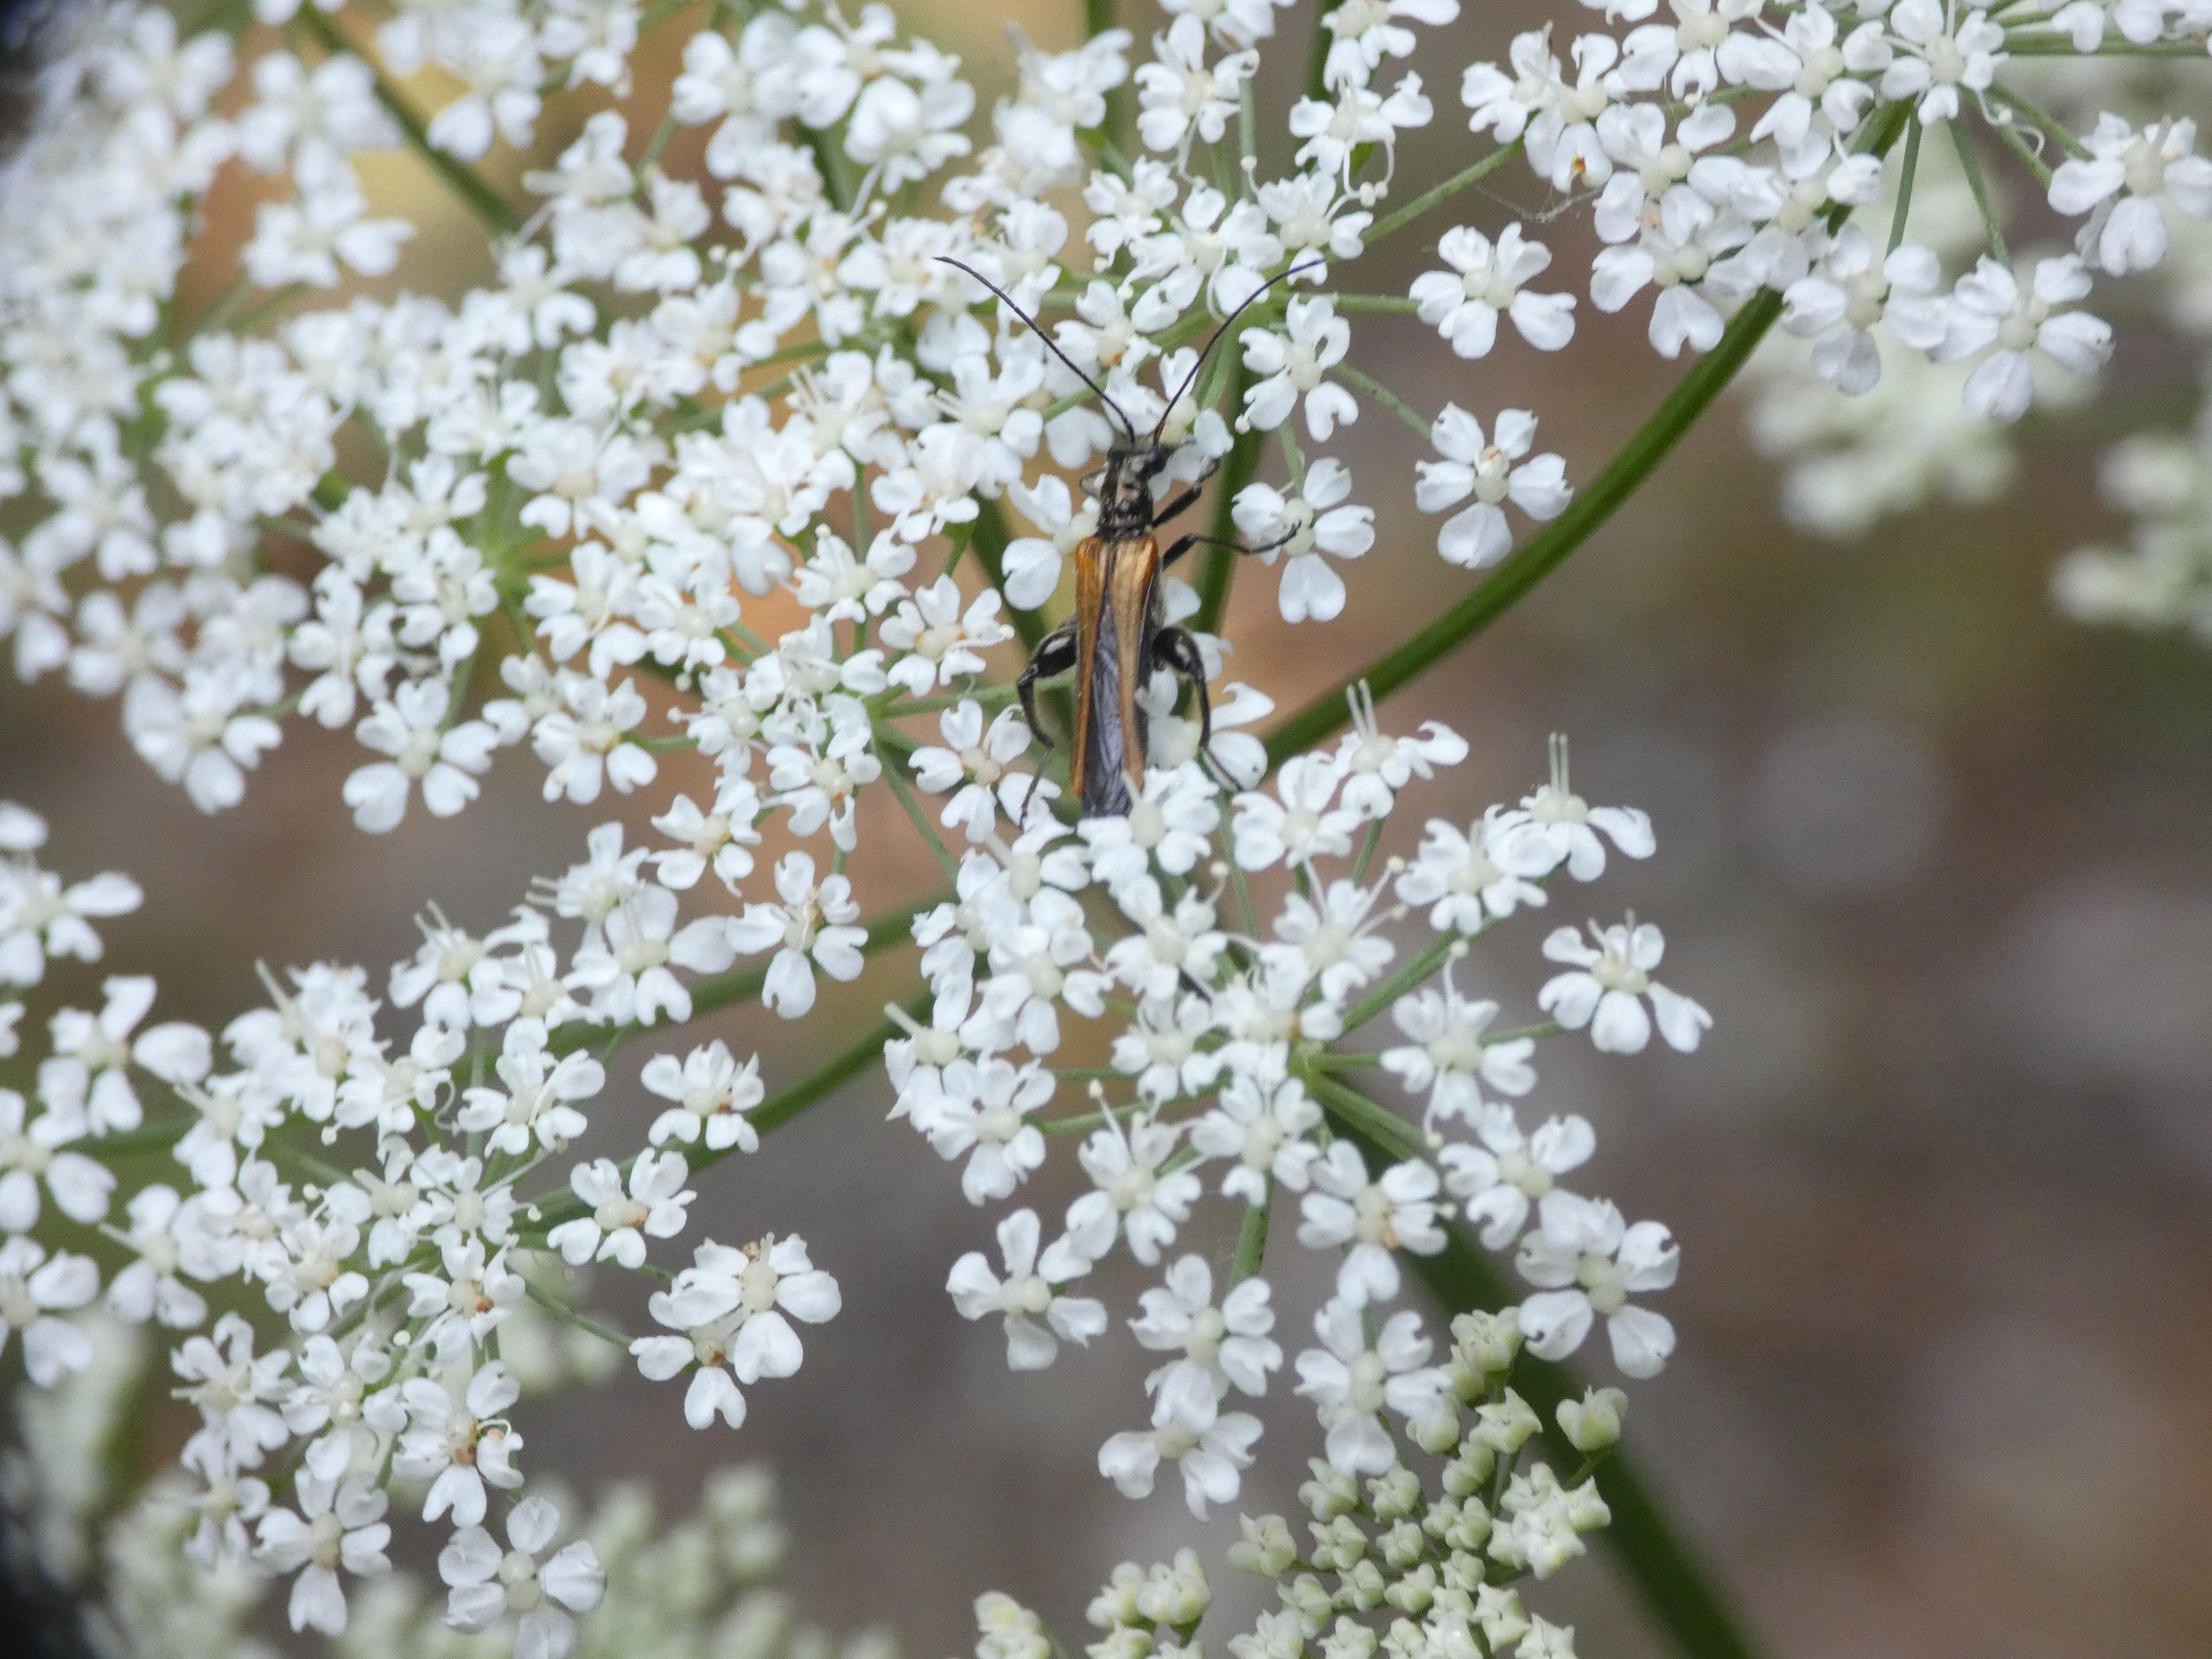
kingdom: Animalia
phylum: Arthropoda
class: Insecta
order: Coleoptera
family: Oedemeridae
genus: Oedemera
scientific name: Oedemera femorata
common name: Gulvinget solbille
